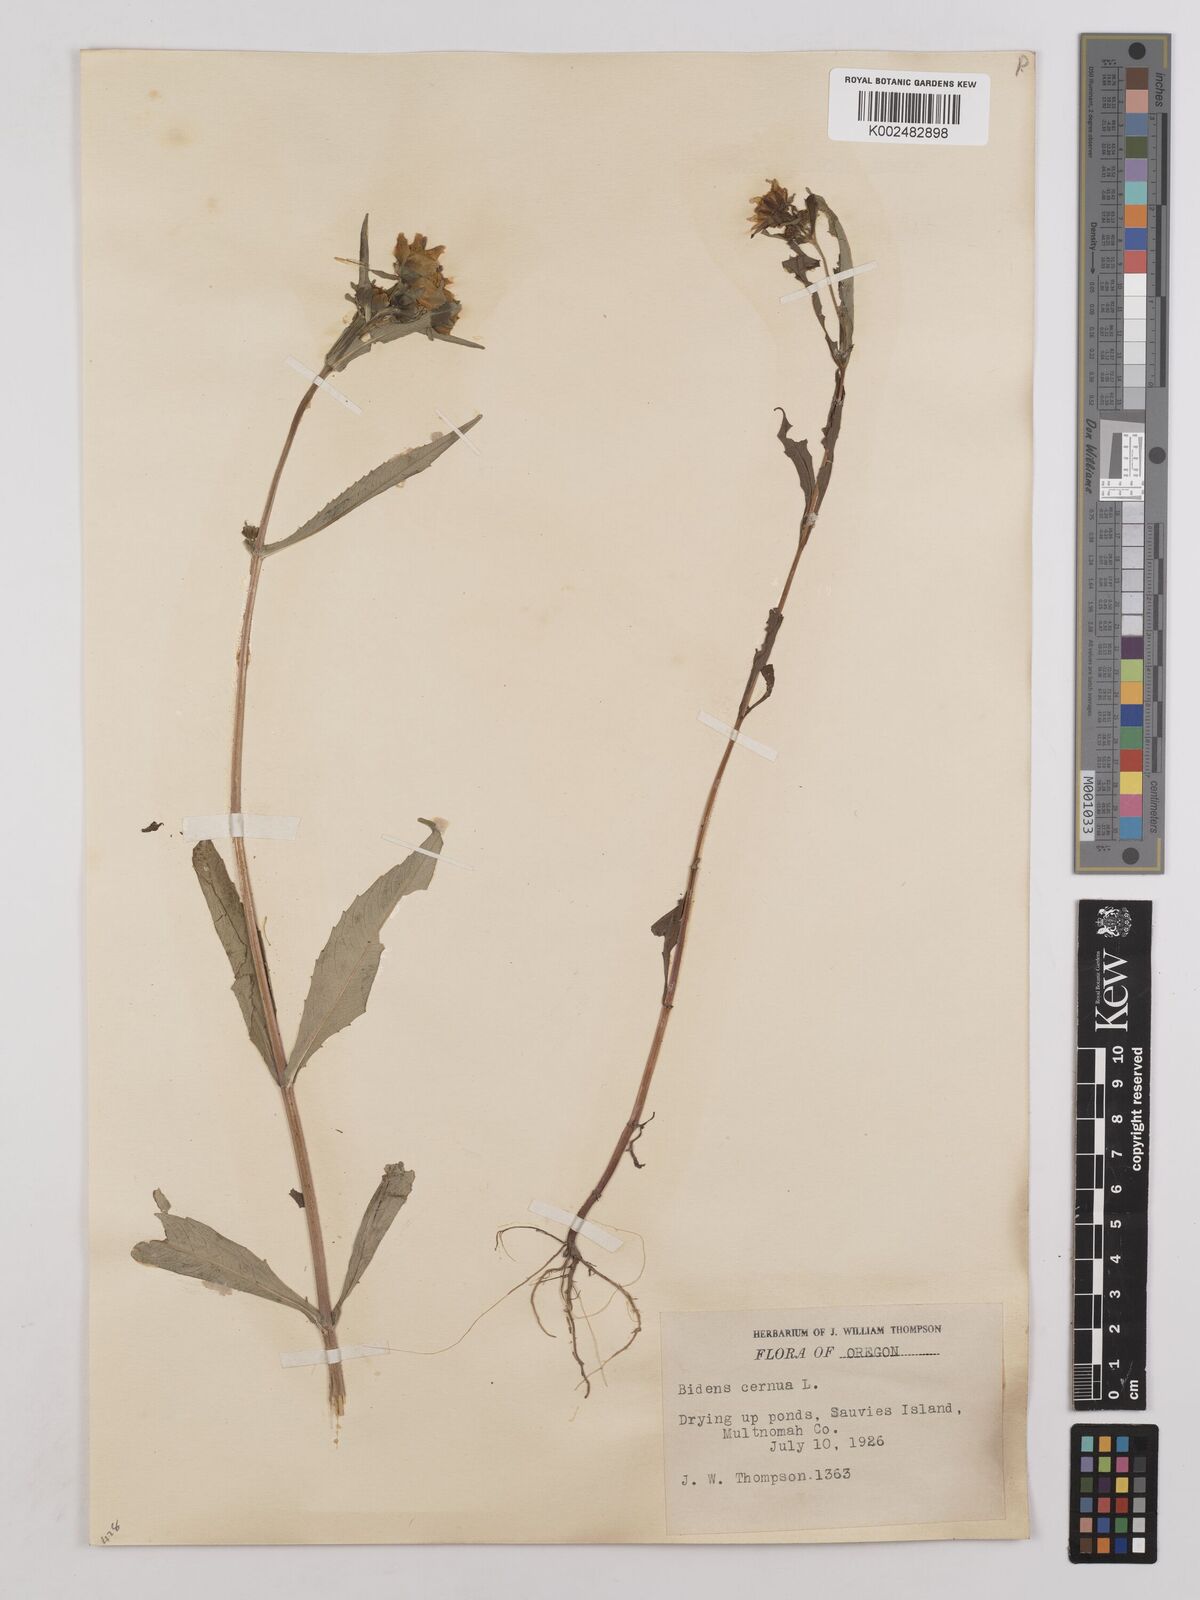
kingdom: Plantae
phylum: Tracheophyta
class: Magnoliopsida
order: Asterales
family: Asteraceae
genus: Bidens
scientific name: Bidens cernua
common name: Nodding bur-marigold
